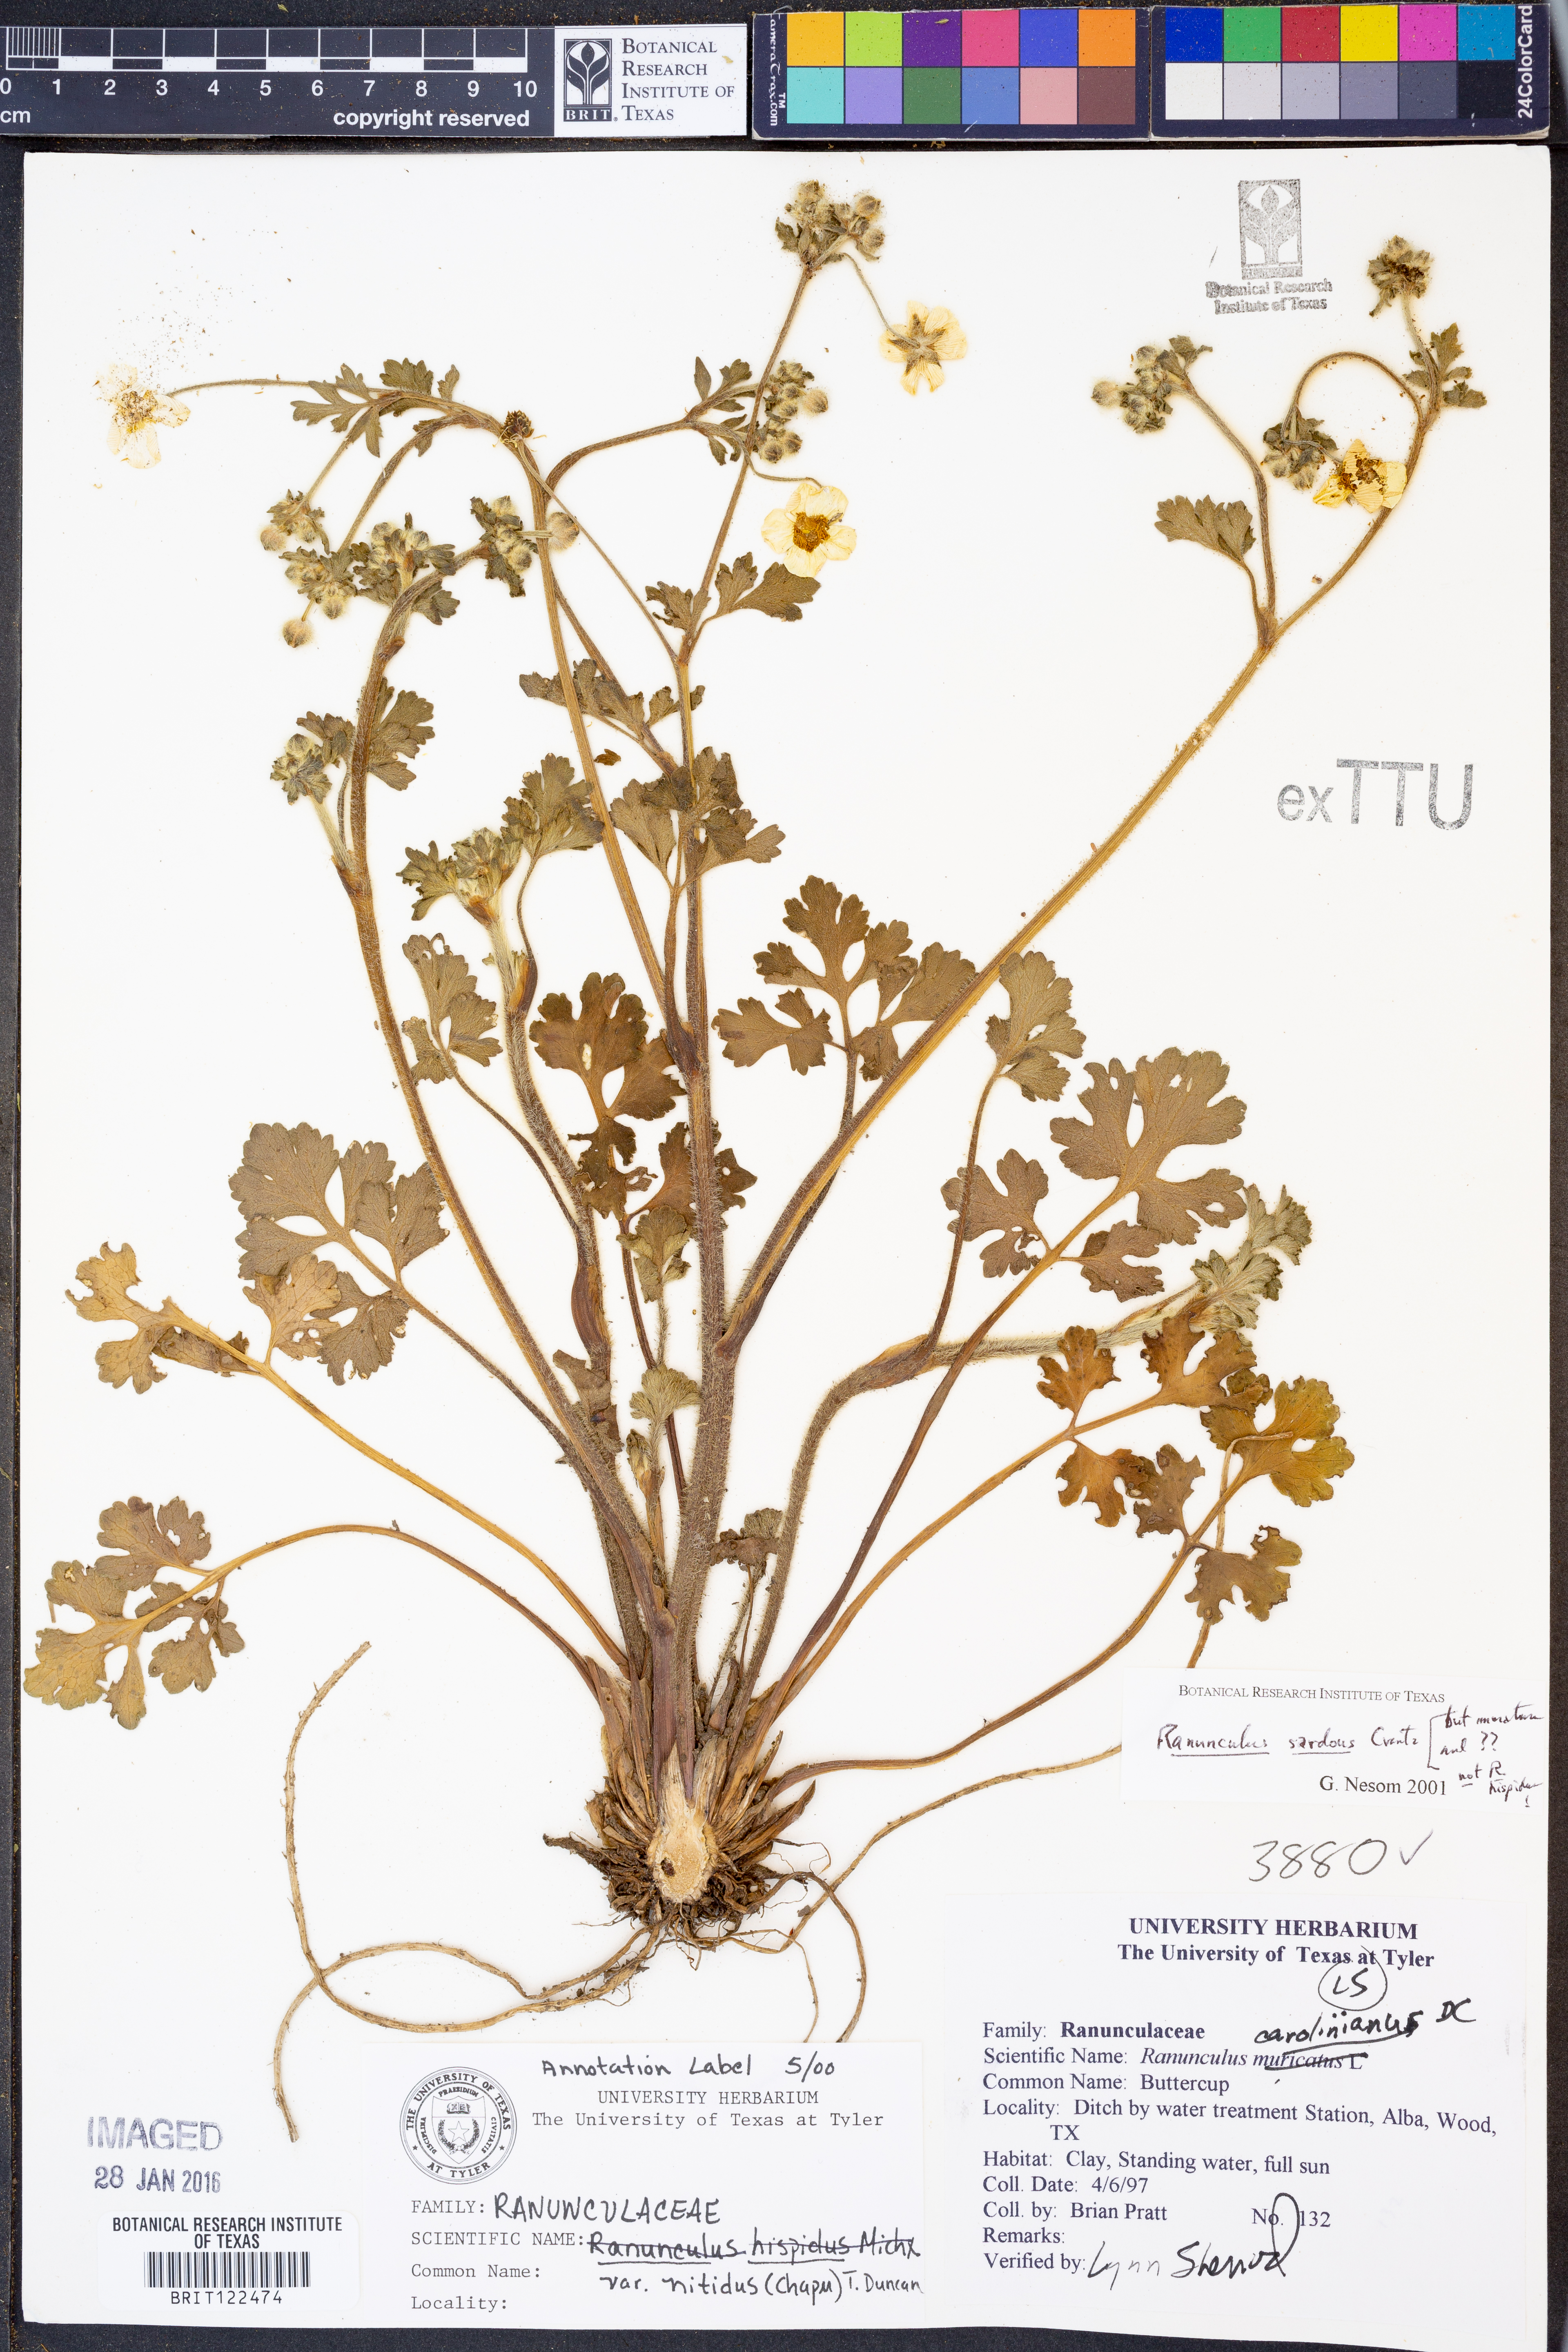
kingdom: Plantae
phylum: Tracheophyta
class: Magnoliopsida
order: Ranunculales
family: Ranunculaceae
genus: Ranunculus
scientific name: Ranunculus sardous
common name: Hairy buttercup
